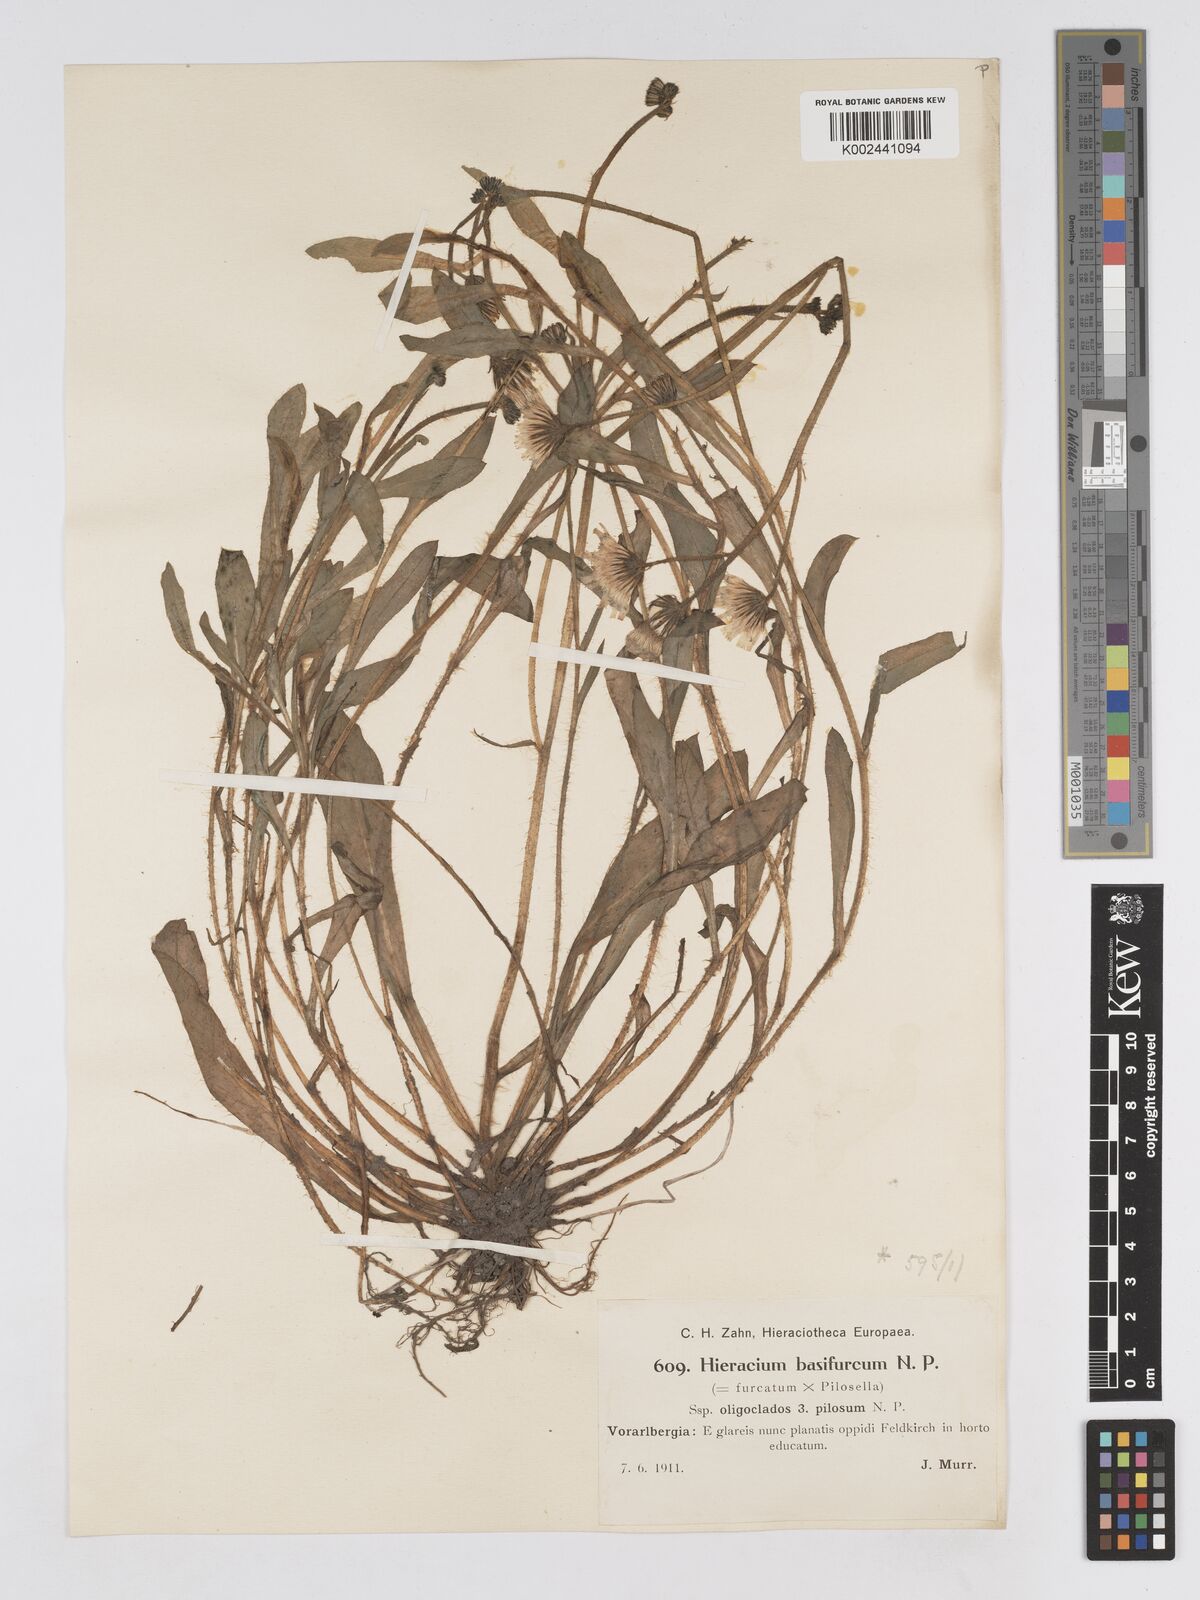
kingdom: Plantae
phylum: Tracheophyta
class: Magnoliopsida
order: Asterales
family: Asteraceae
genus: Pilosella
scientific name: Pilosella basifurca
